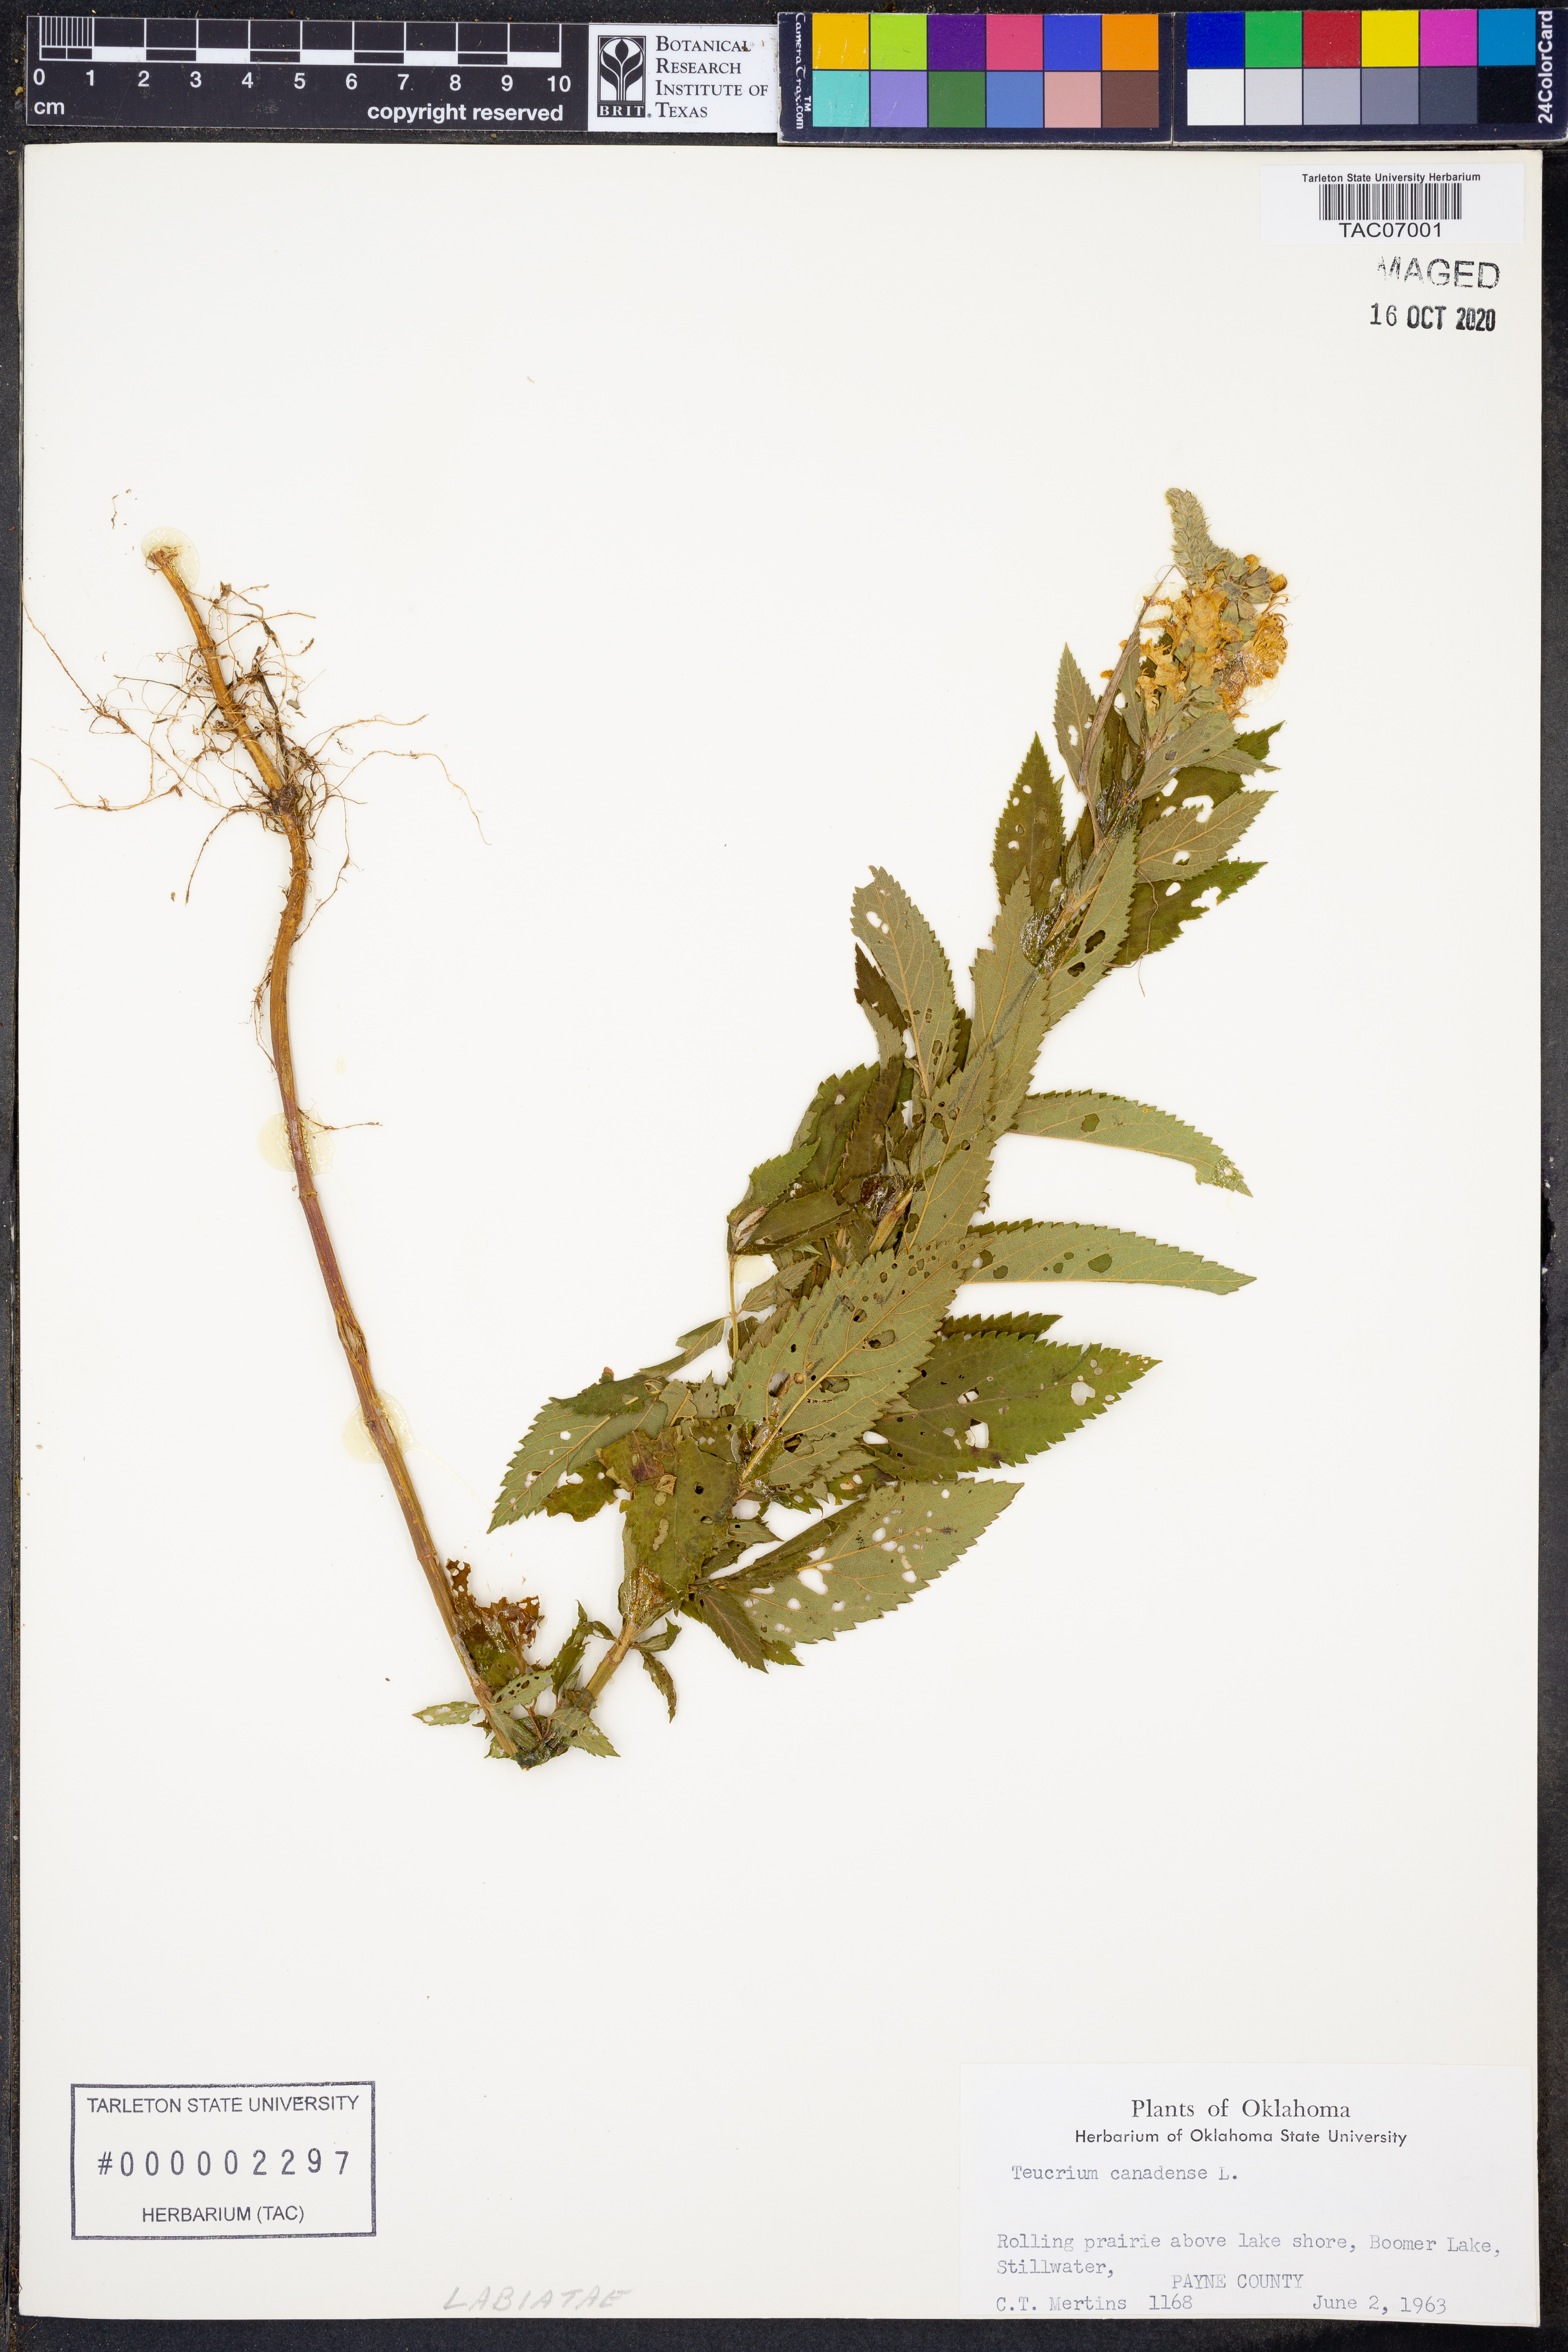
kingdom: Plantae
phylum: Tracheophyta
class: Magnoliopsida
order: Lamiales
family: Lamiaceae
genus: Teucrium
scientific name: Teucrium canadense
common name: American germander
